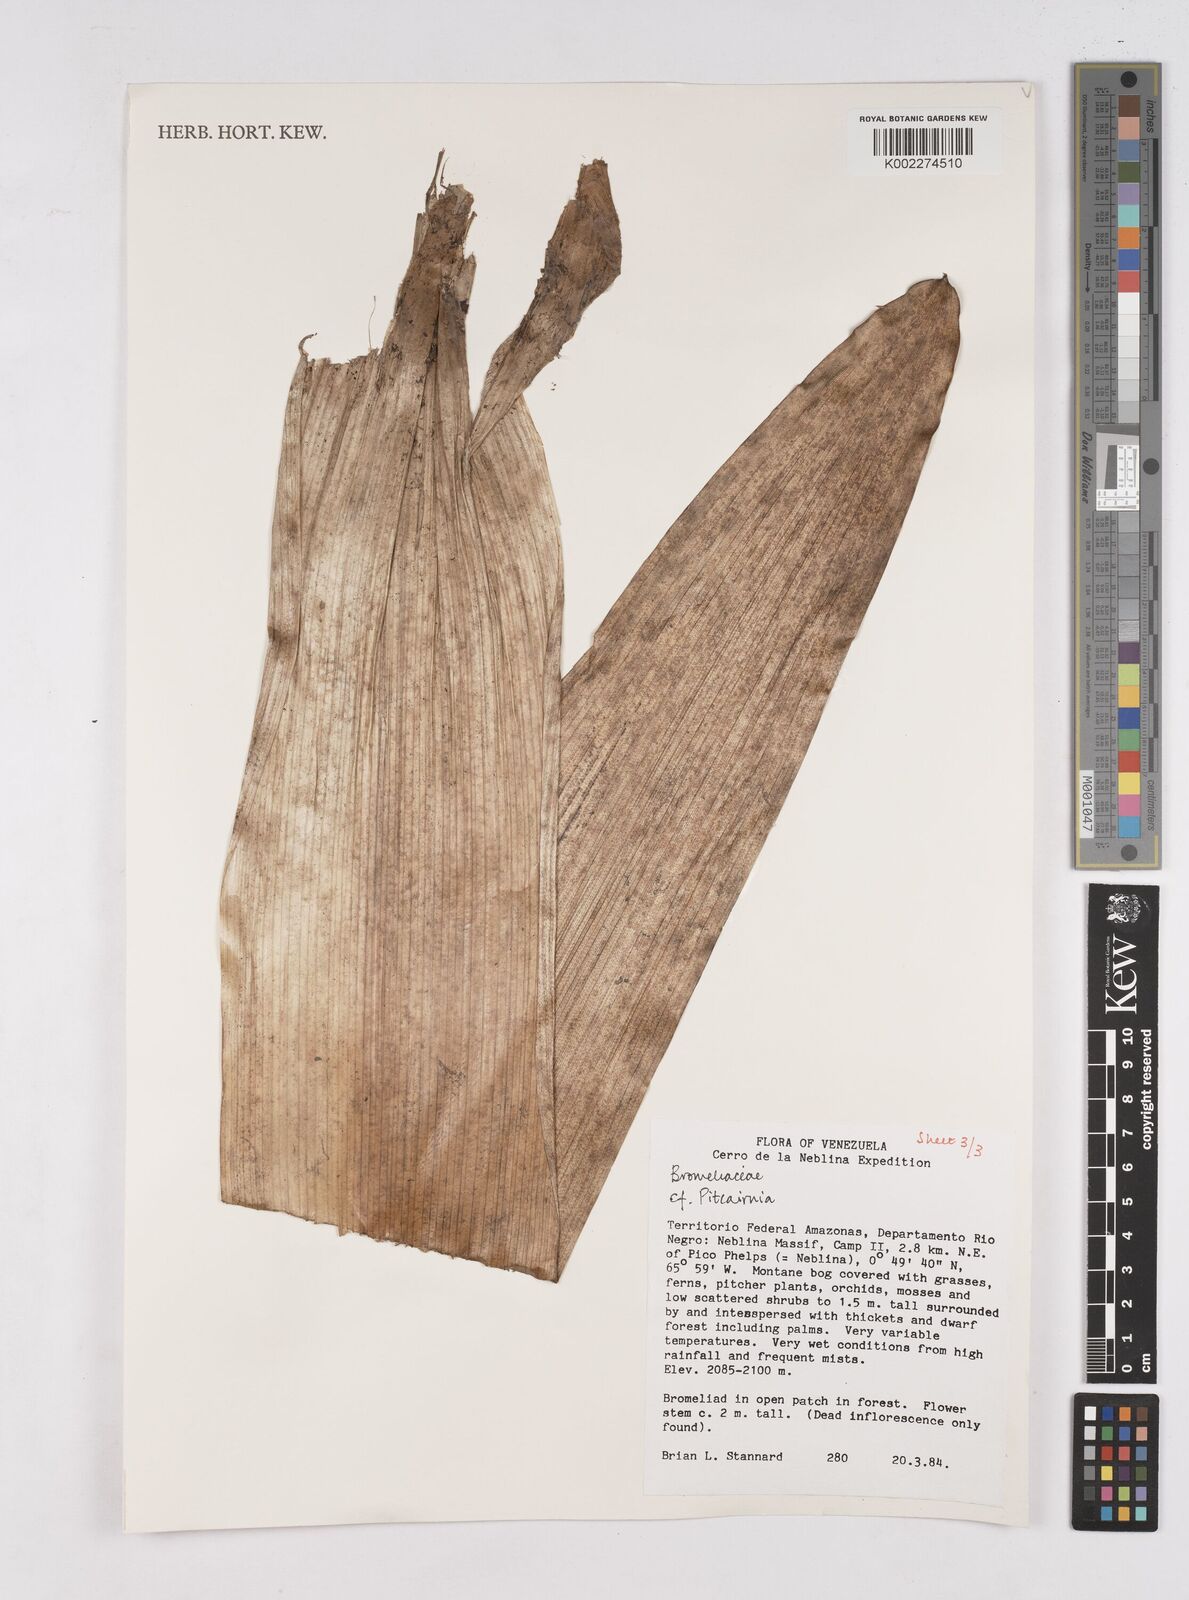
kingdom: Plantae
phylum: Tracheophyta
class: Liliopsida
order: Poales
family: Bromeliaceae
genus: Pitcairnia
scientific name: Pitcairnia
